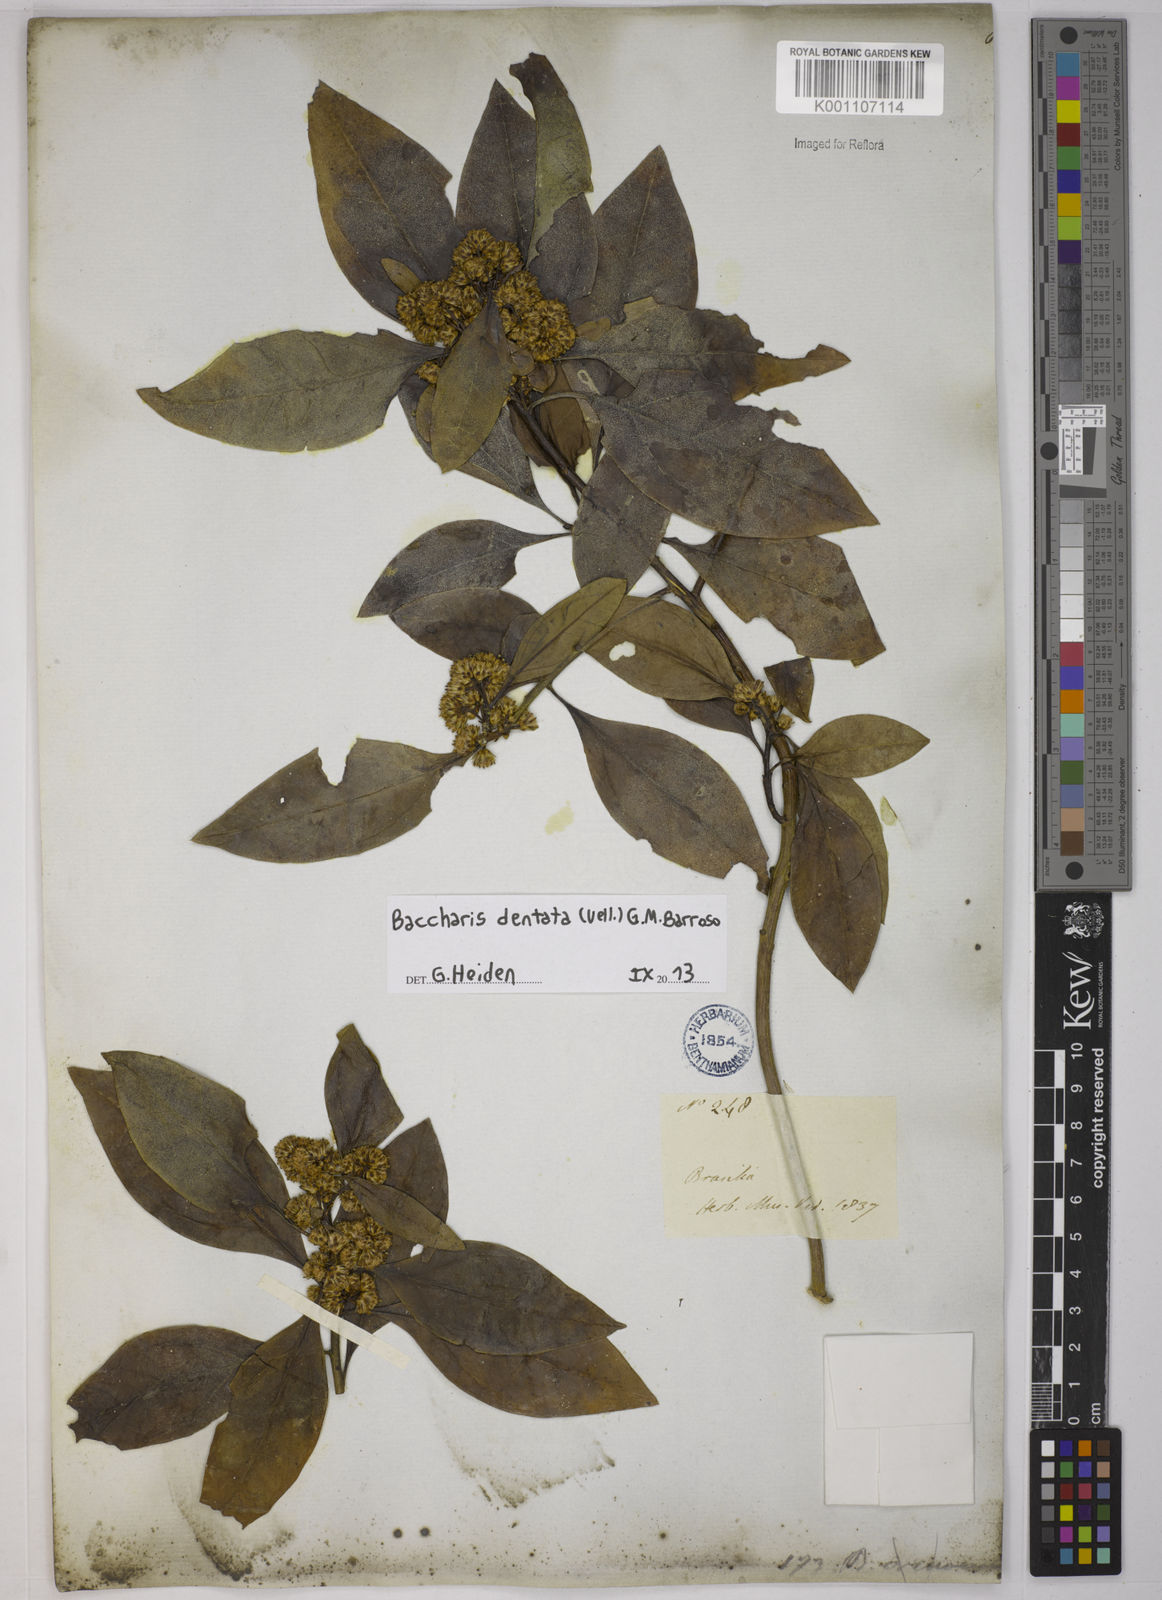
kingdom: Plantae
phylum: Tracheophyta
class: Magnoliopsida
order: Asterales
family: Asteraceae
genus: Baccharis
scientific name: Baccharis dentata
